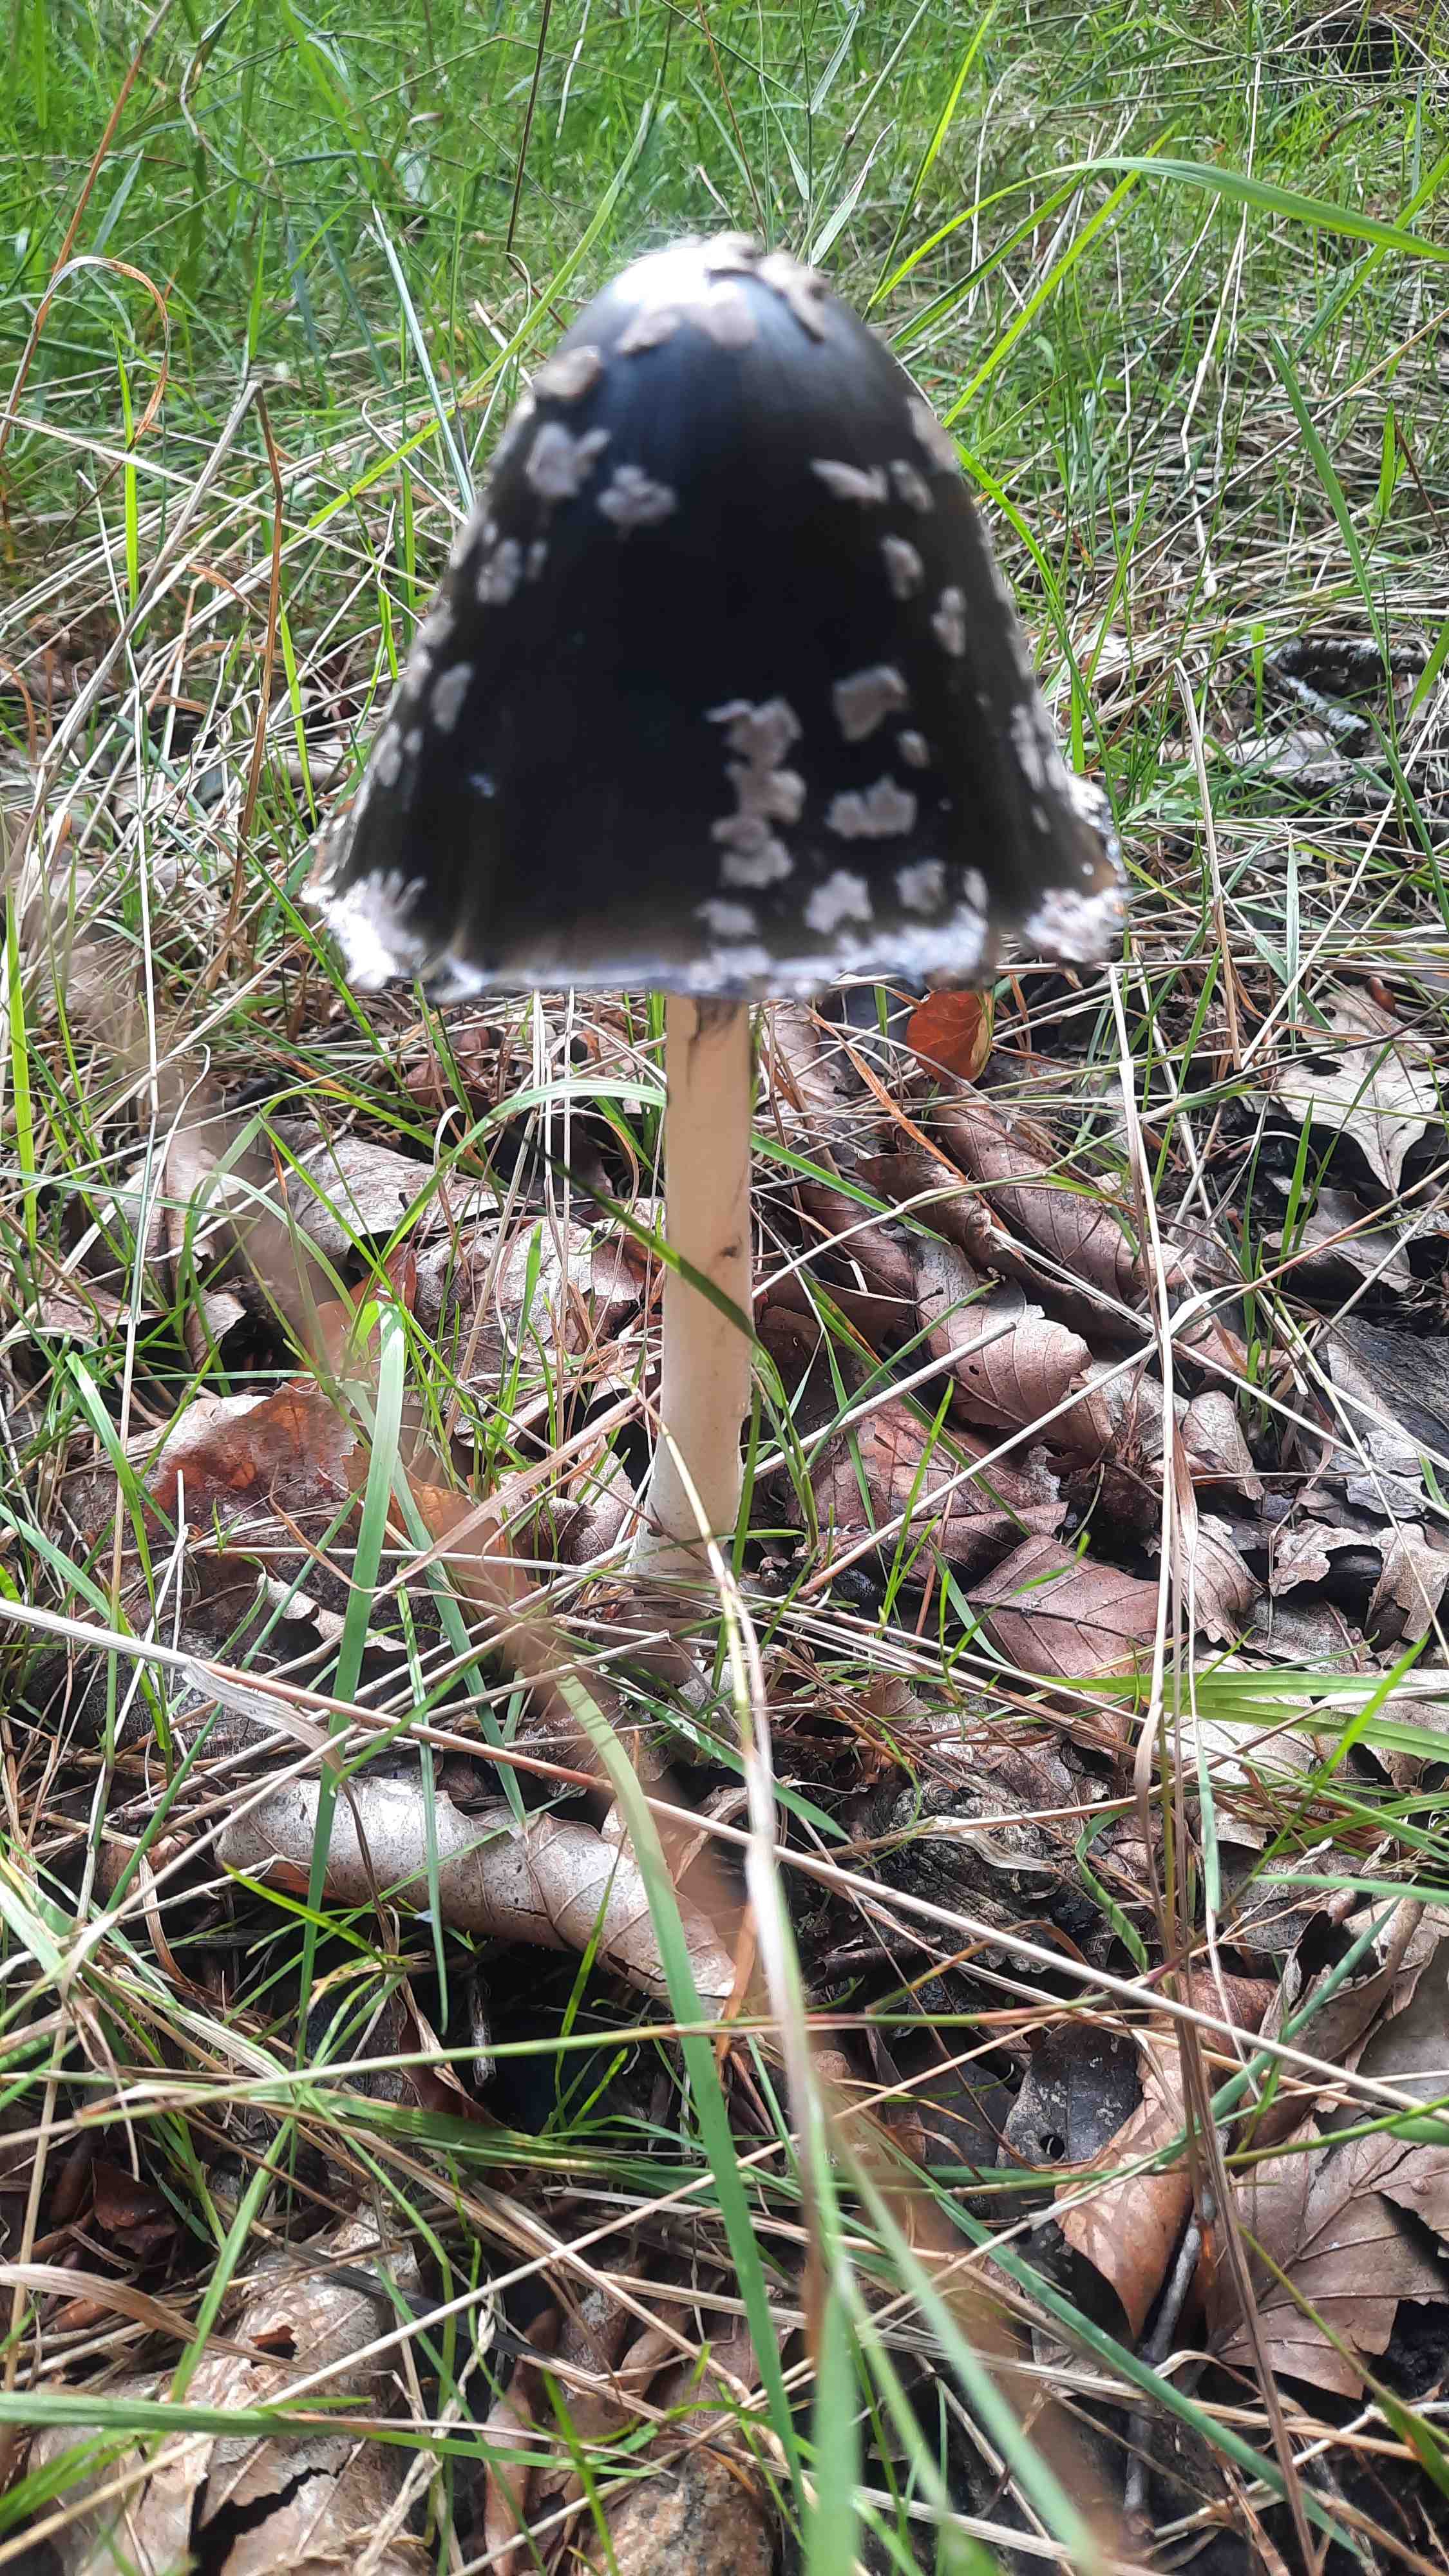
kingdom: Fungi
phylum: Basidiomycota
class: Agaricomycetes
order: Agaricales
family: Psathyrellaceae
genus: Coprinopsis
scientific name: Coprinopsis picacea
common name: skade-blækhat
